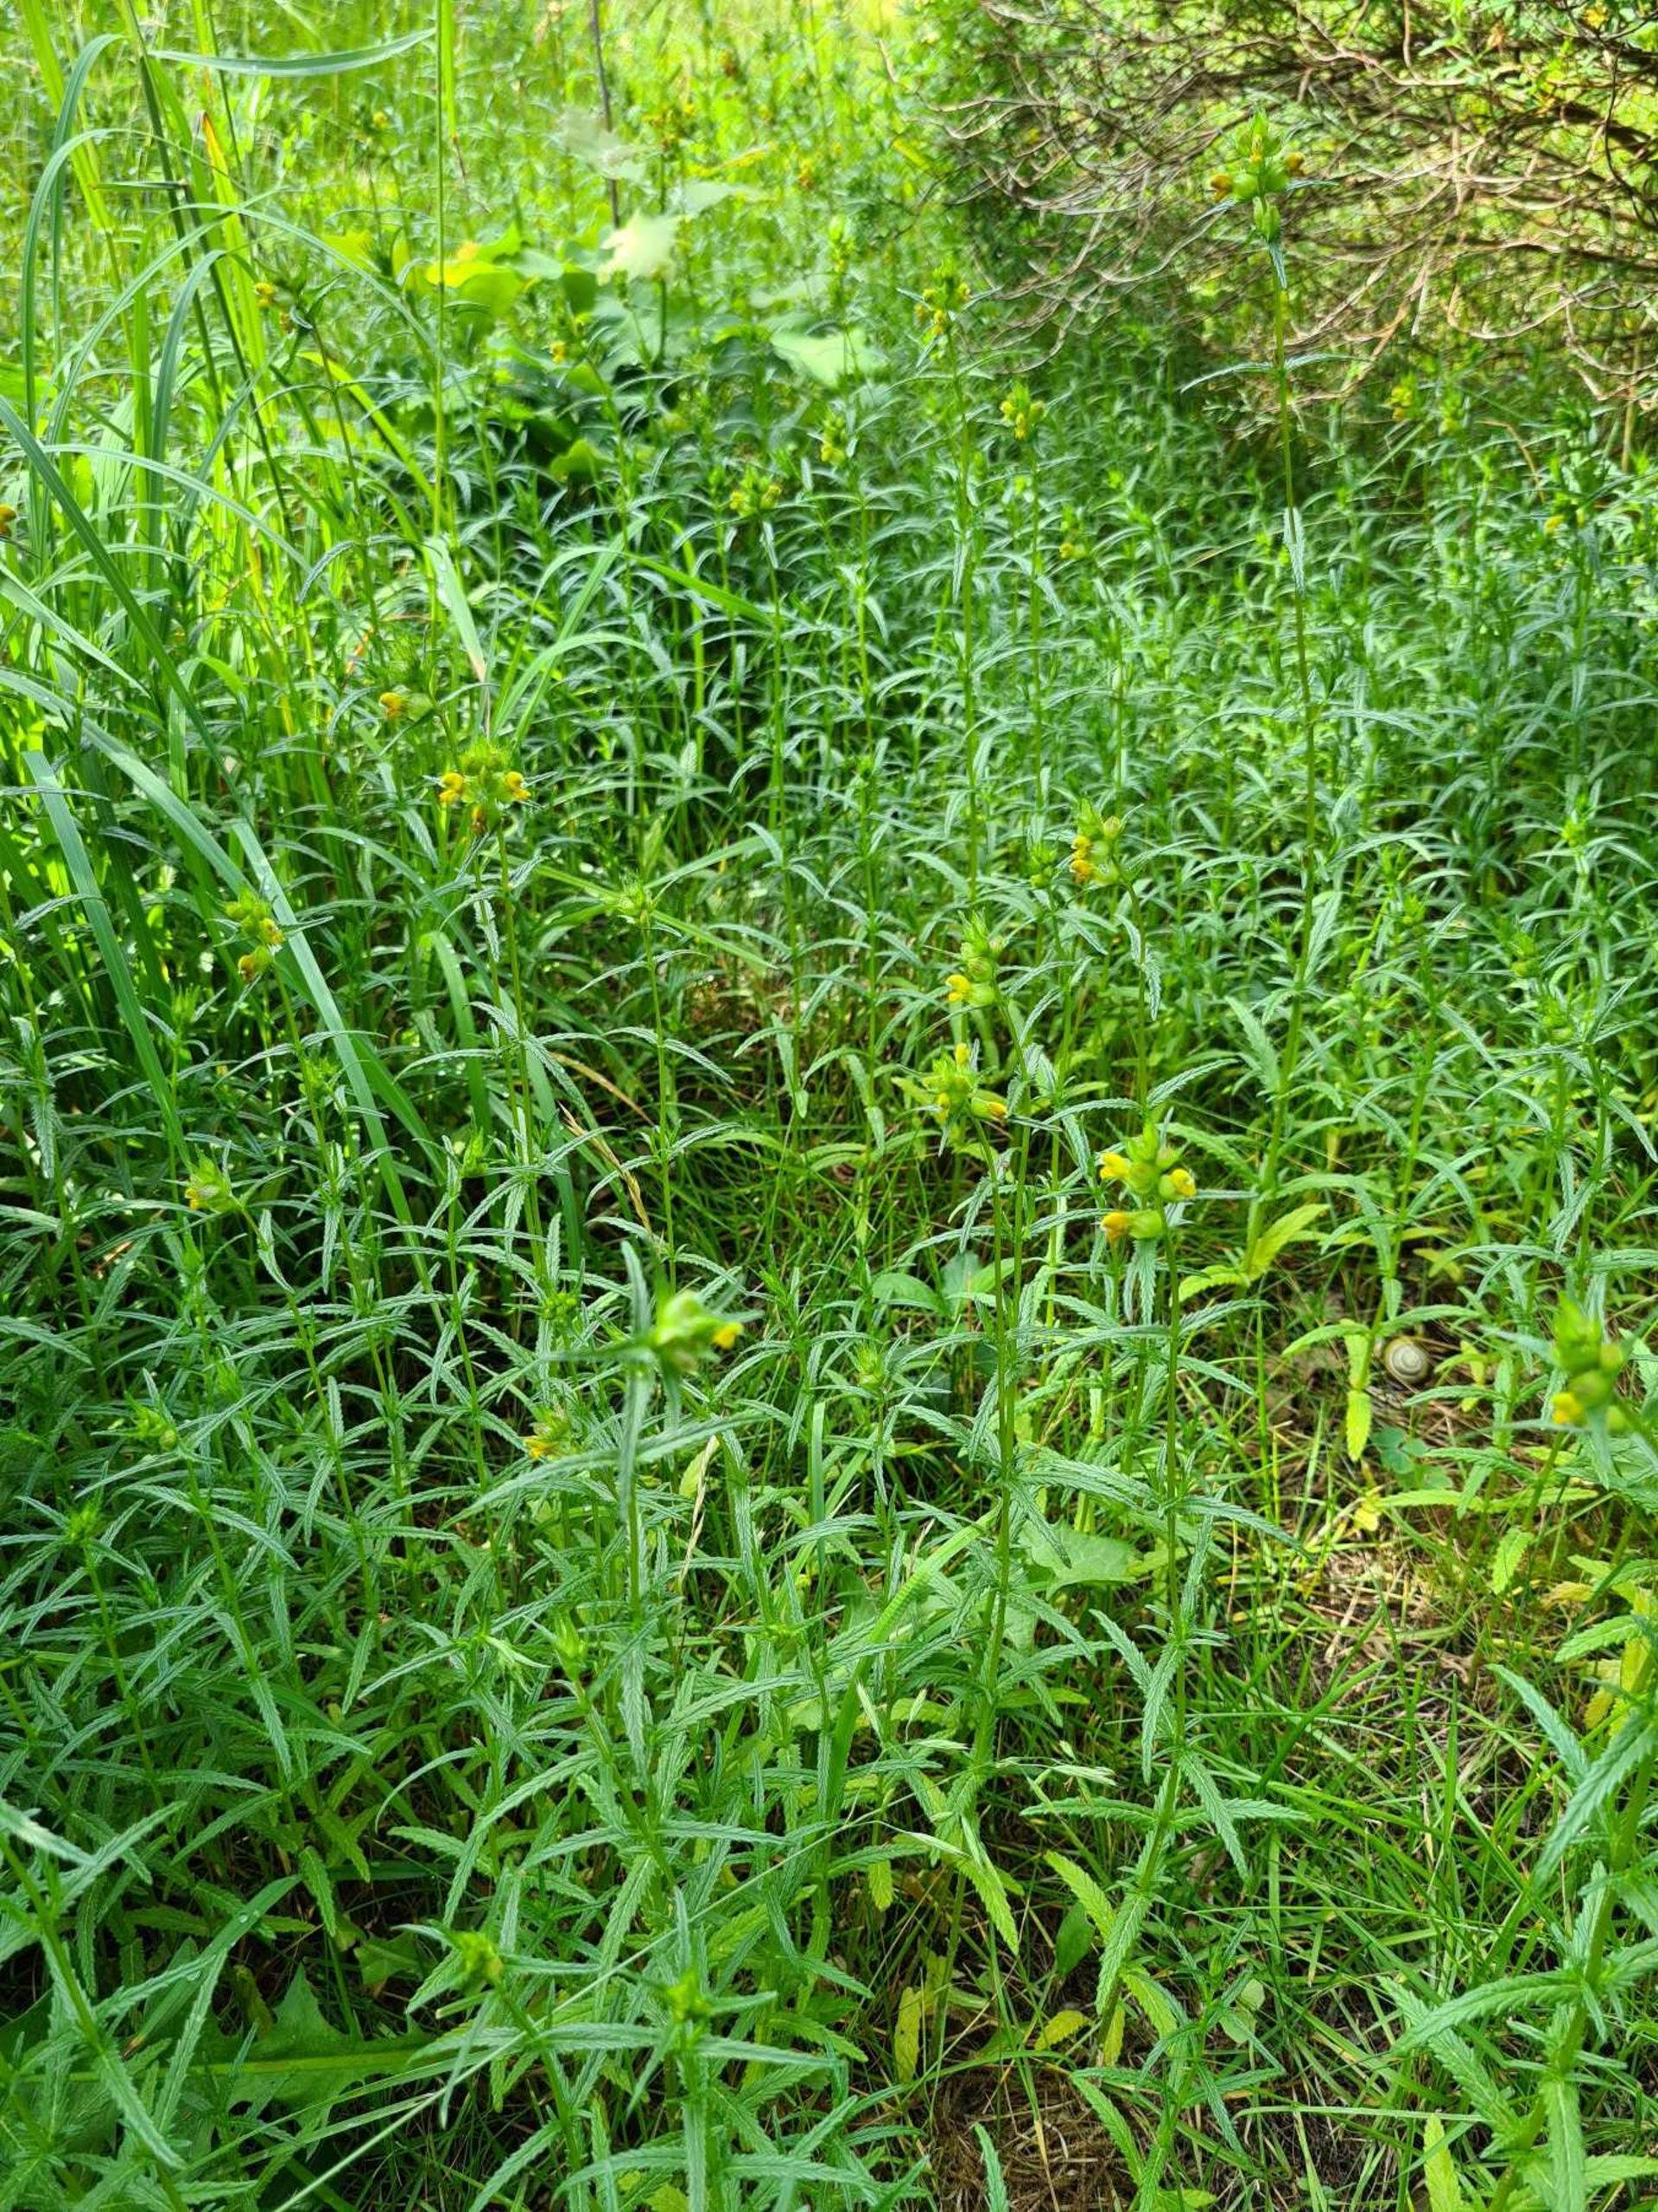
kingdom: Plantae
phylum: Tracheophyta
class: Magnoliopsida
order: Lamiales
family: Orobanchaceae
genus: Rhinanthus
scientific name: Rhinanthus minor
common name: Liden skjaller
